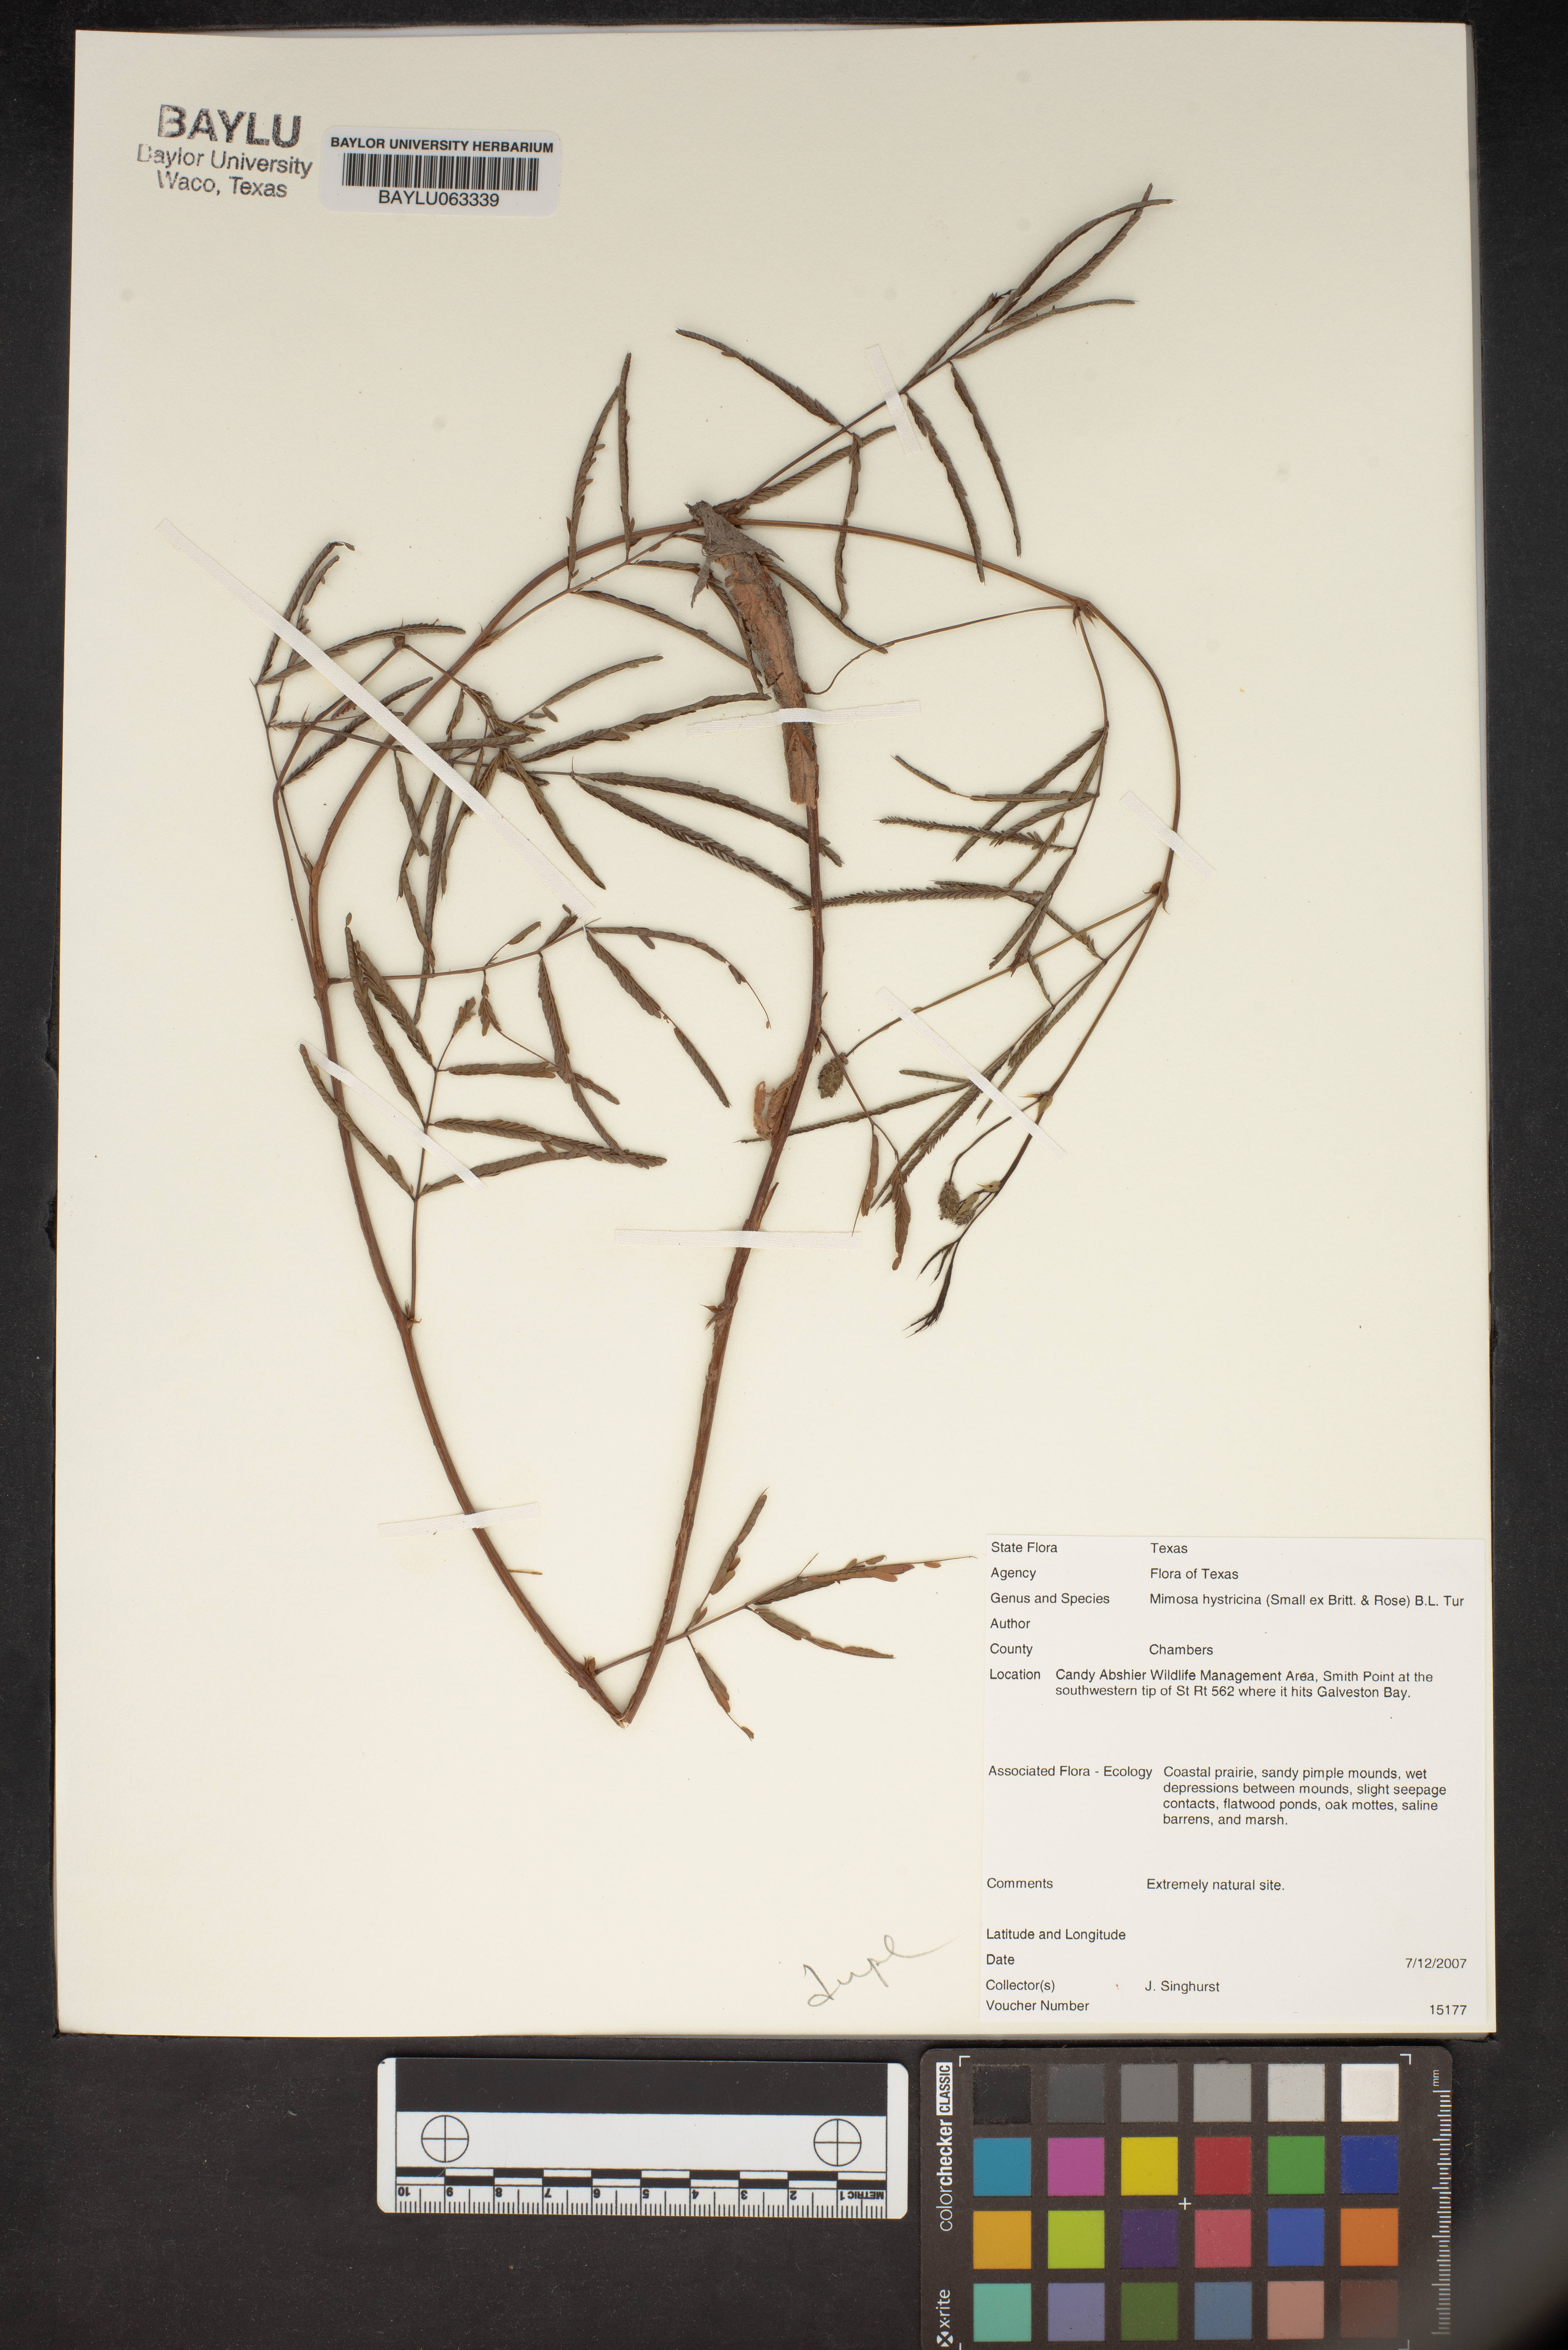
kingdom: Plantae
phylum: Tracheophyta
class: Magnoliopsida
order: Fabales
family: Fabaceae
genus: Mimosa
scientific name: Mimosa hystricina
